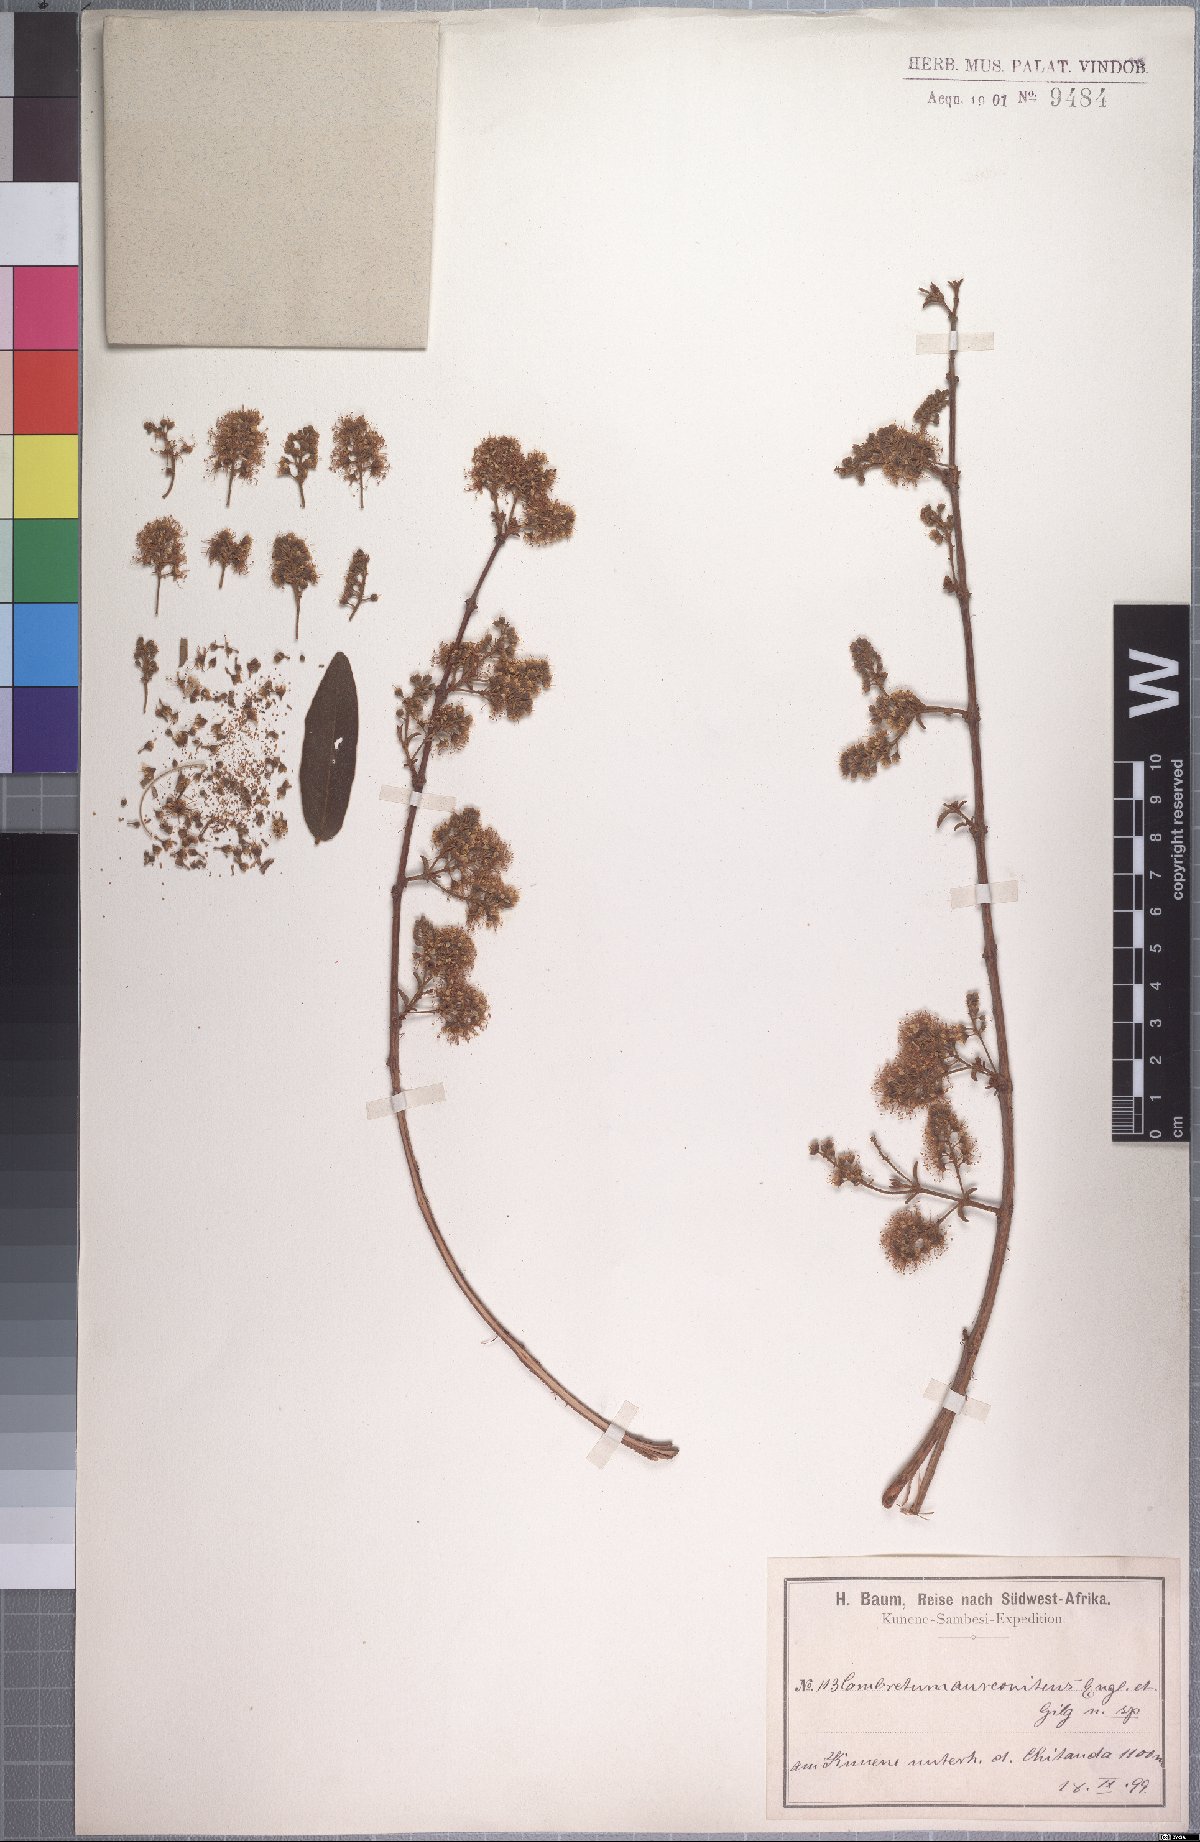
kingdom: Plantae
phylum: Tracheophyta
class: Magnoliopsida
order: Myrtales
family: Combretaceae
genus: Combretum
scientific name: Combretum aureonitens
